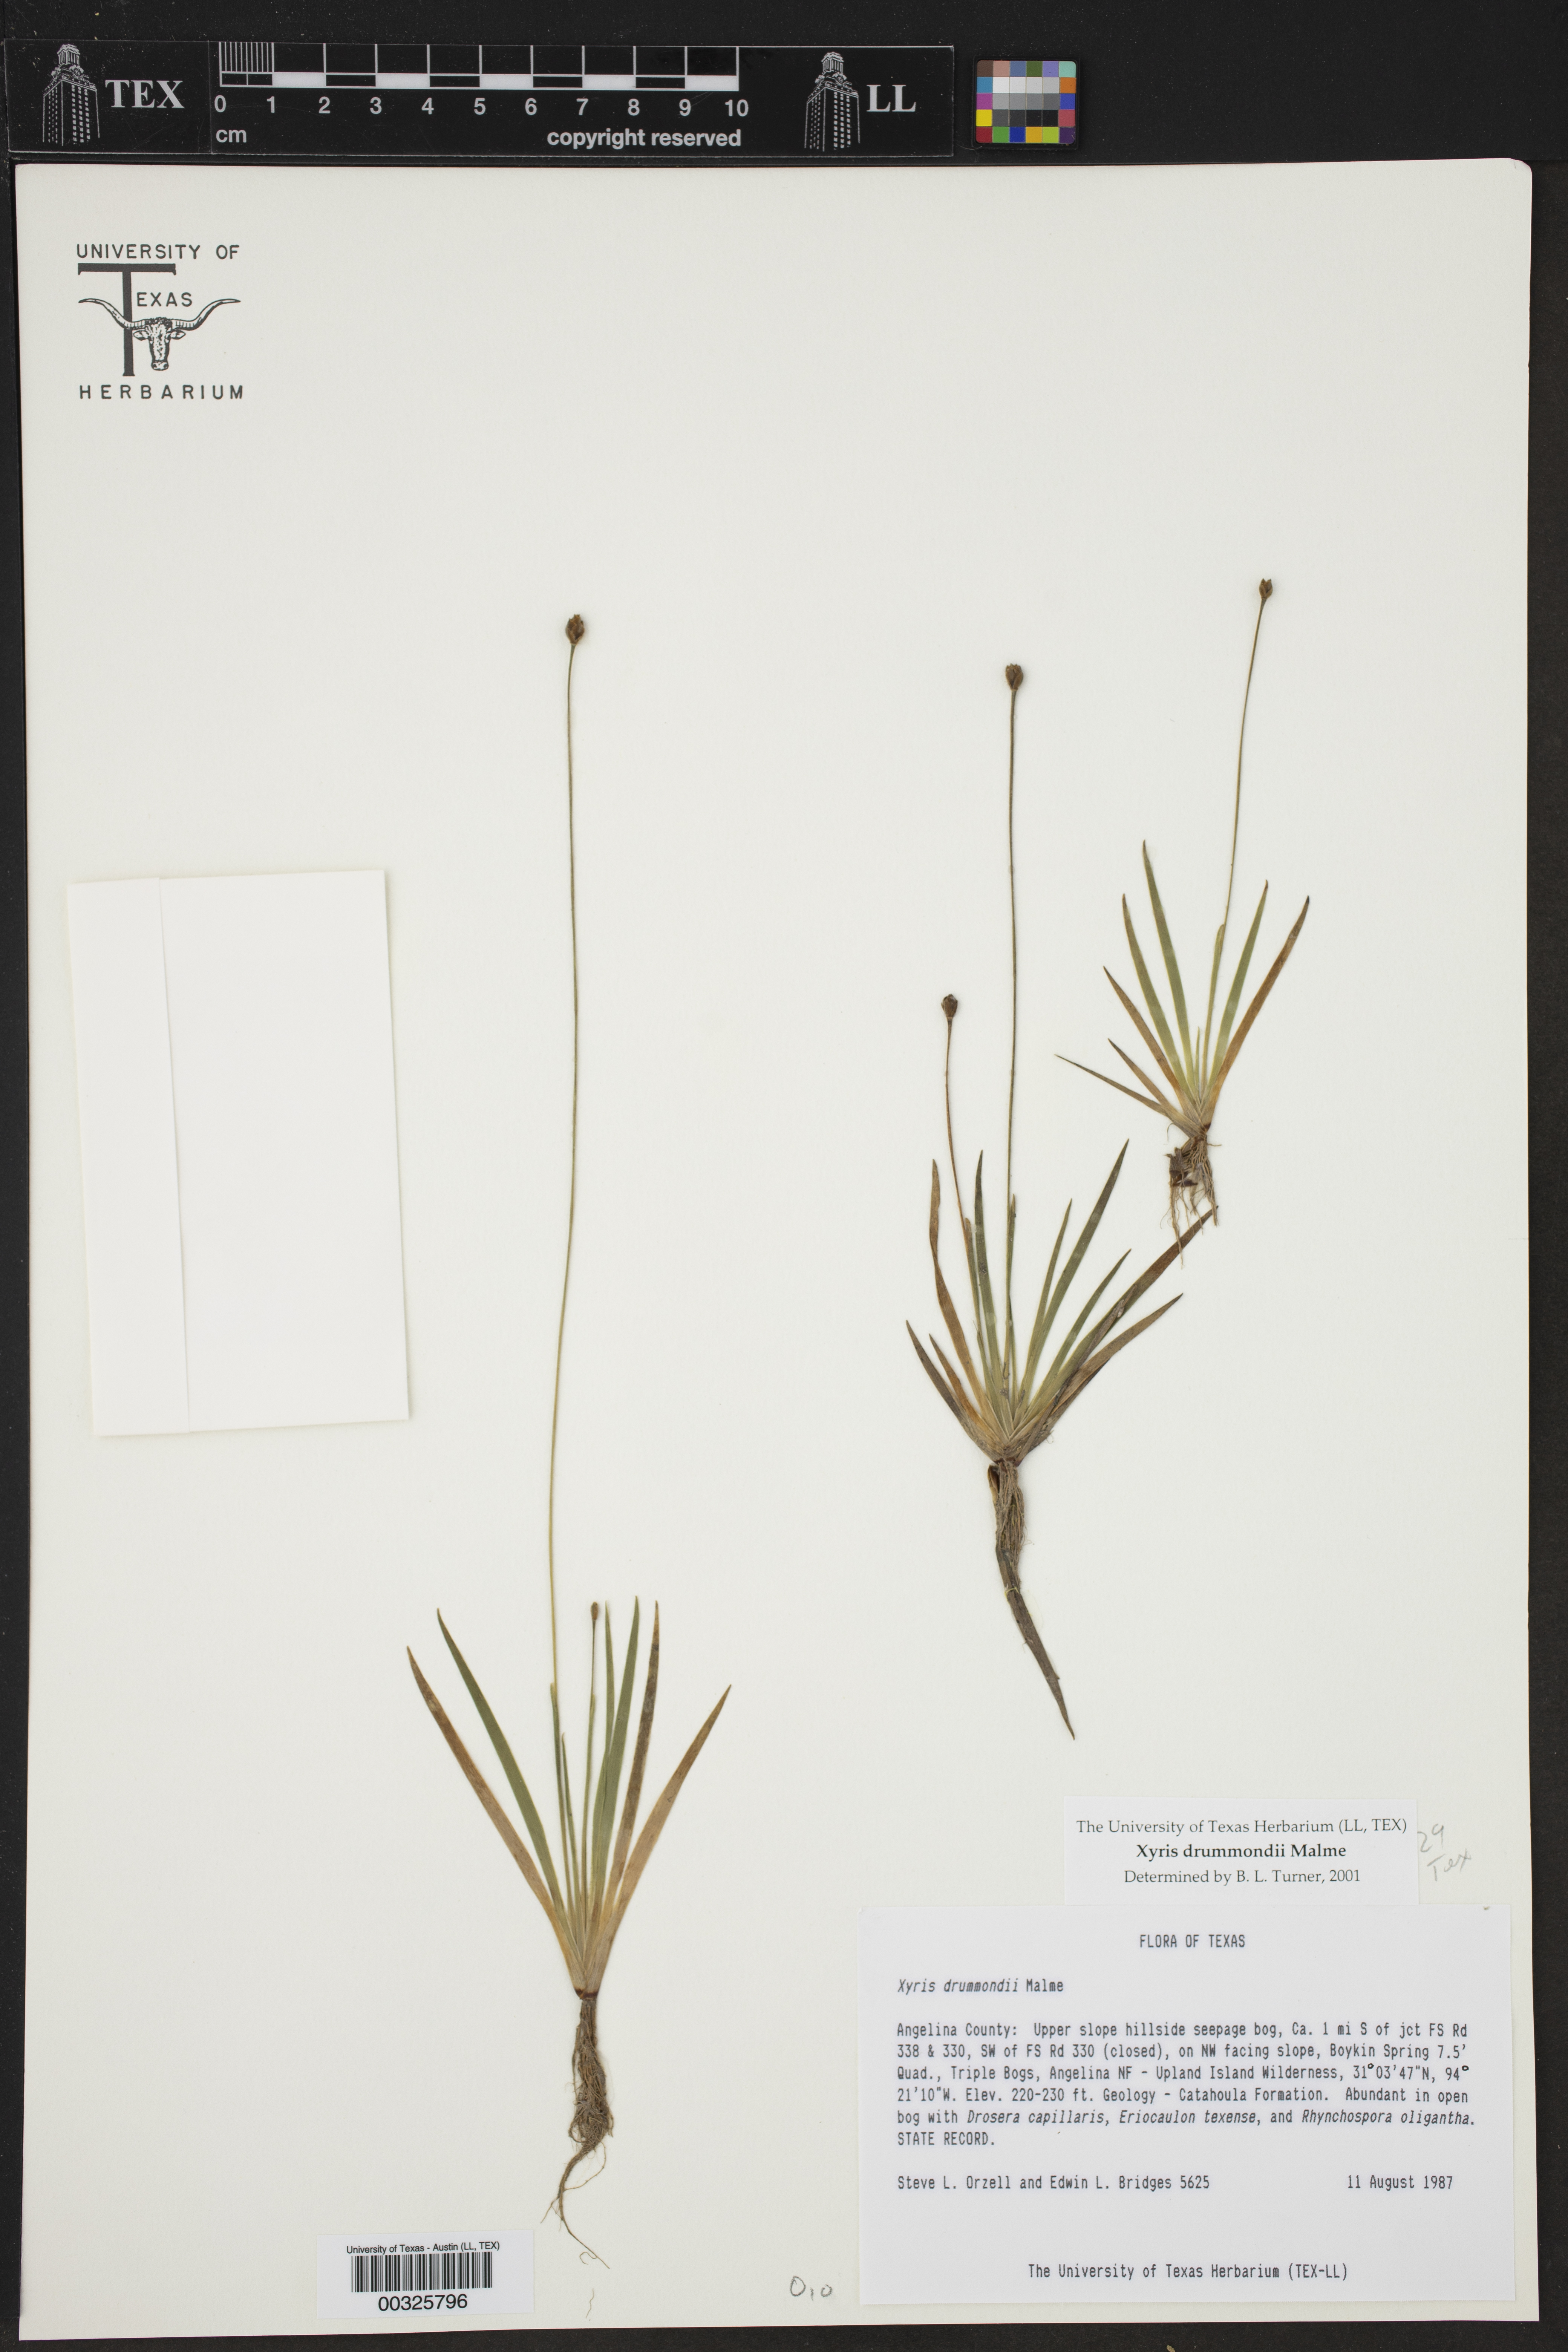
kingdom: Plantae
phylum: Tracheophyta
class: Liliopsida
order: Poales
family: Xyridaceae
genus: Xyris
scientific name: Xyris drummondii
